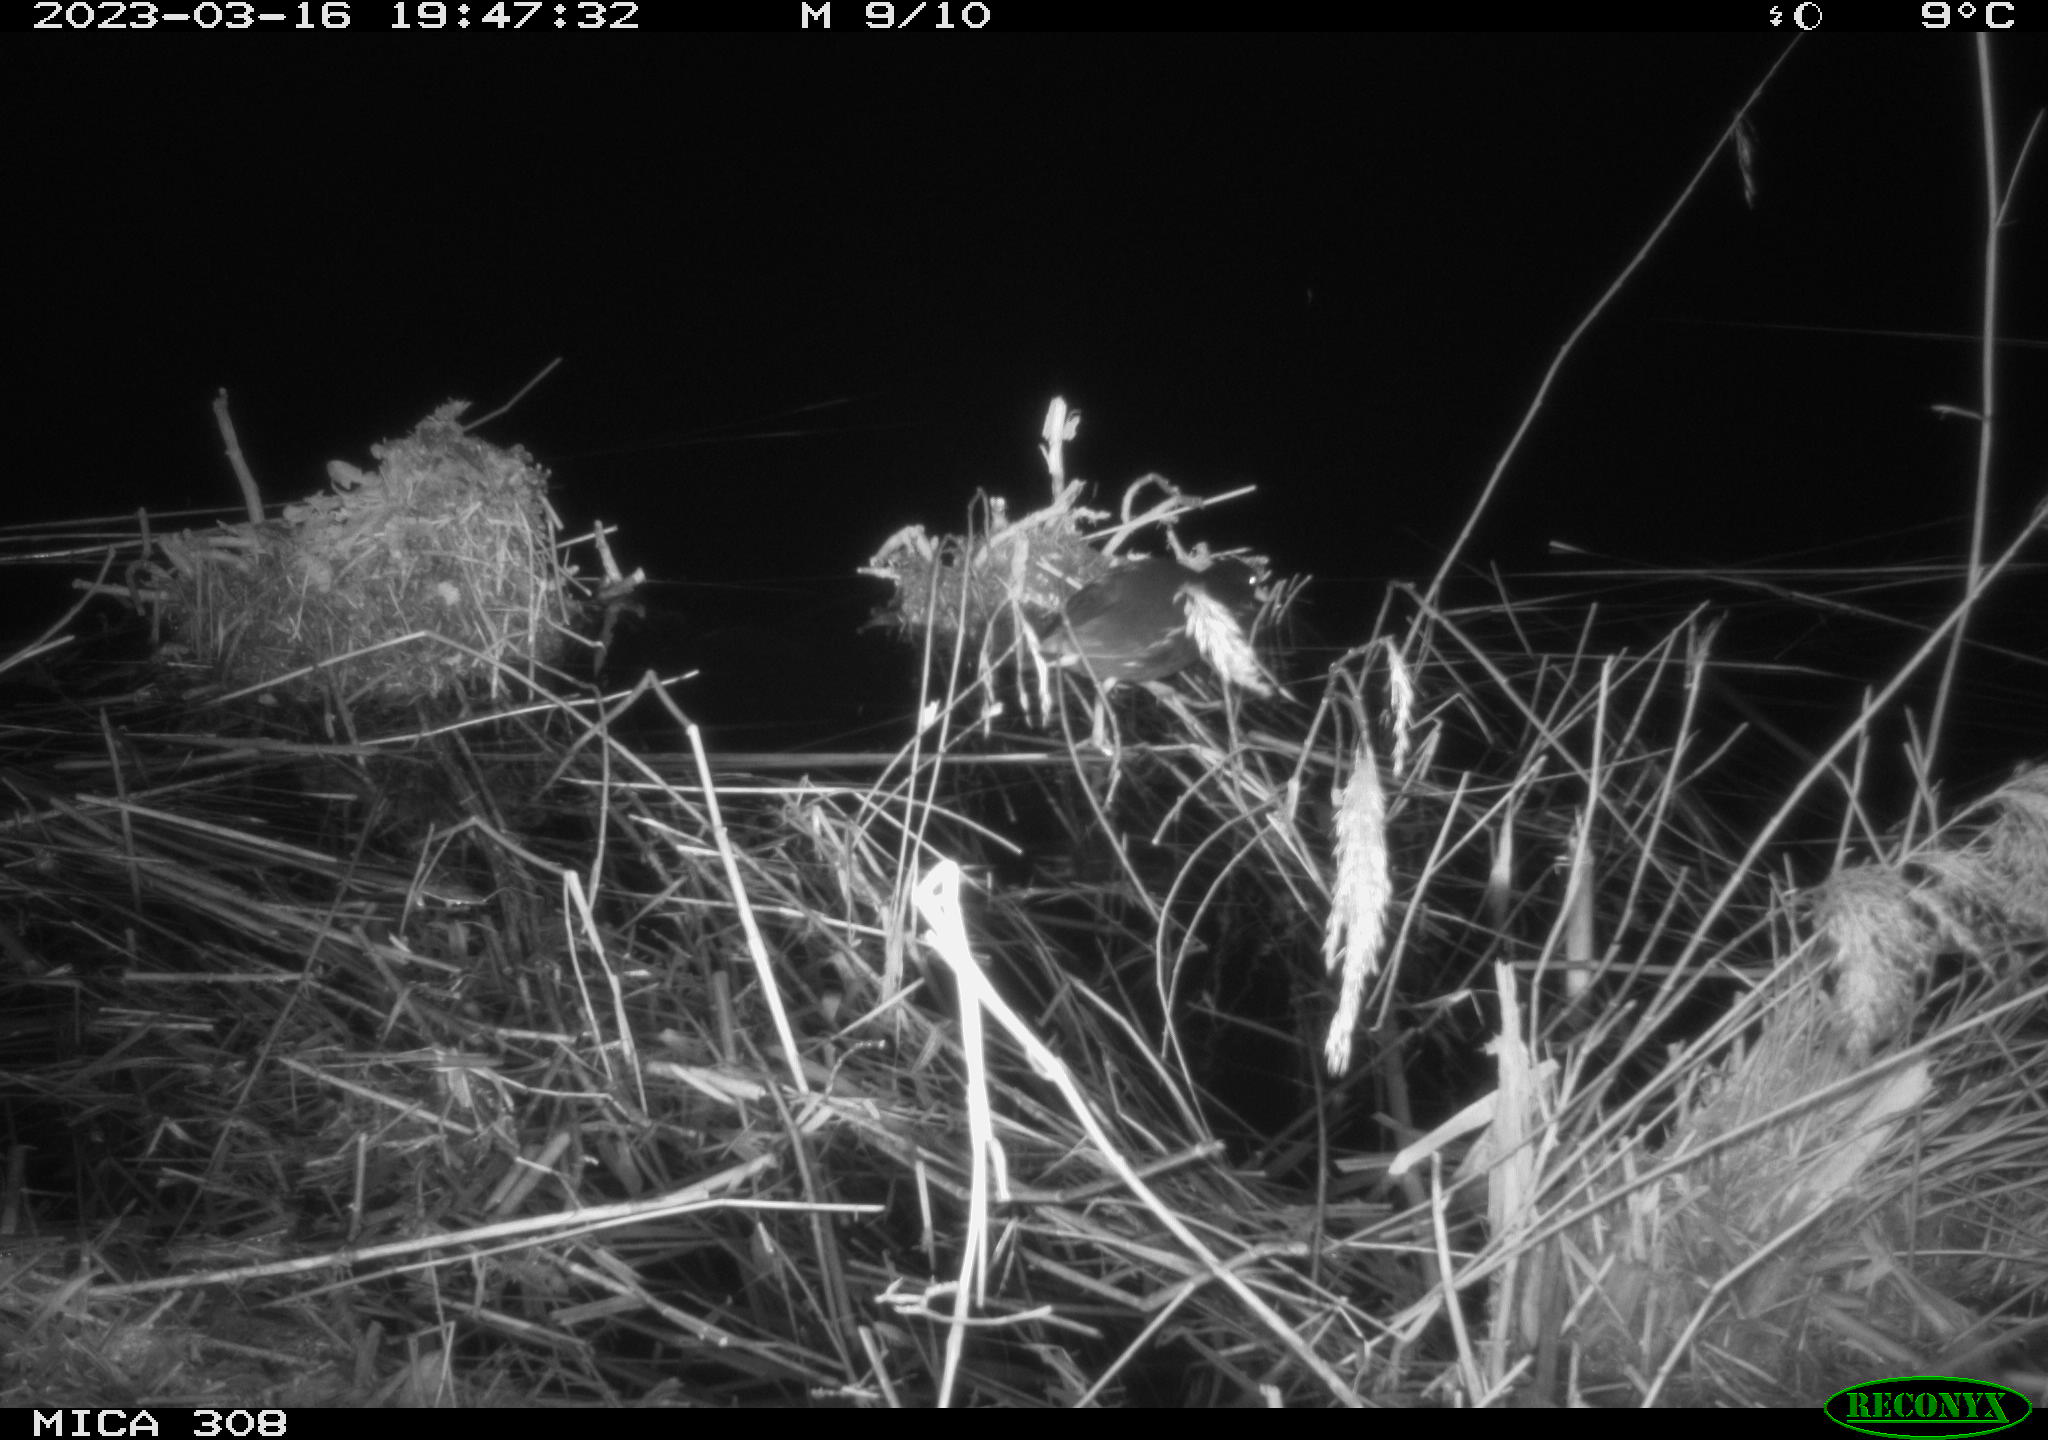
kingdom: Animalia
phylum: Chordata
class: Mammalia
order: Rodentia
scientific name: Rodentia
